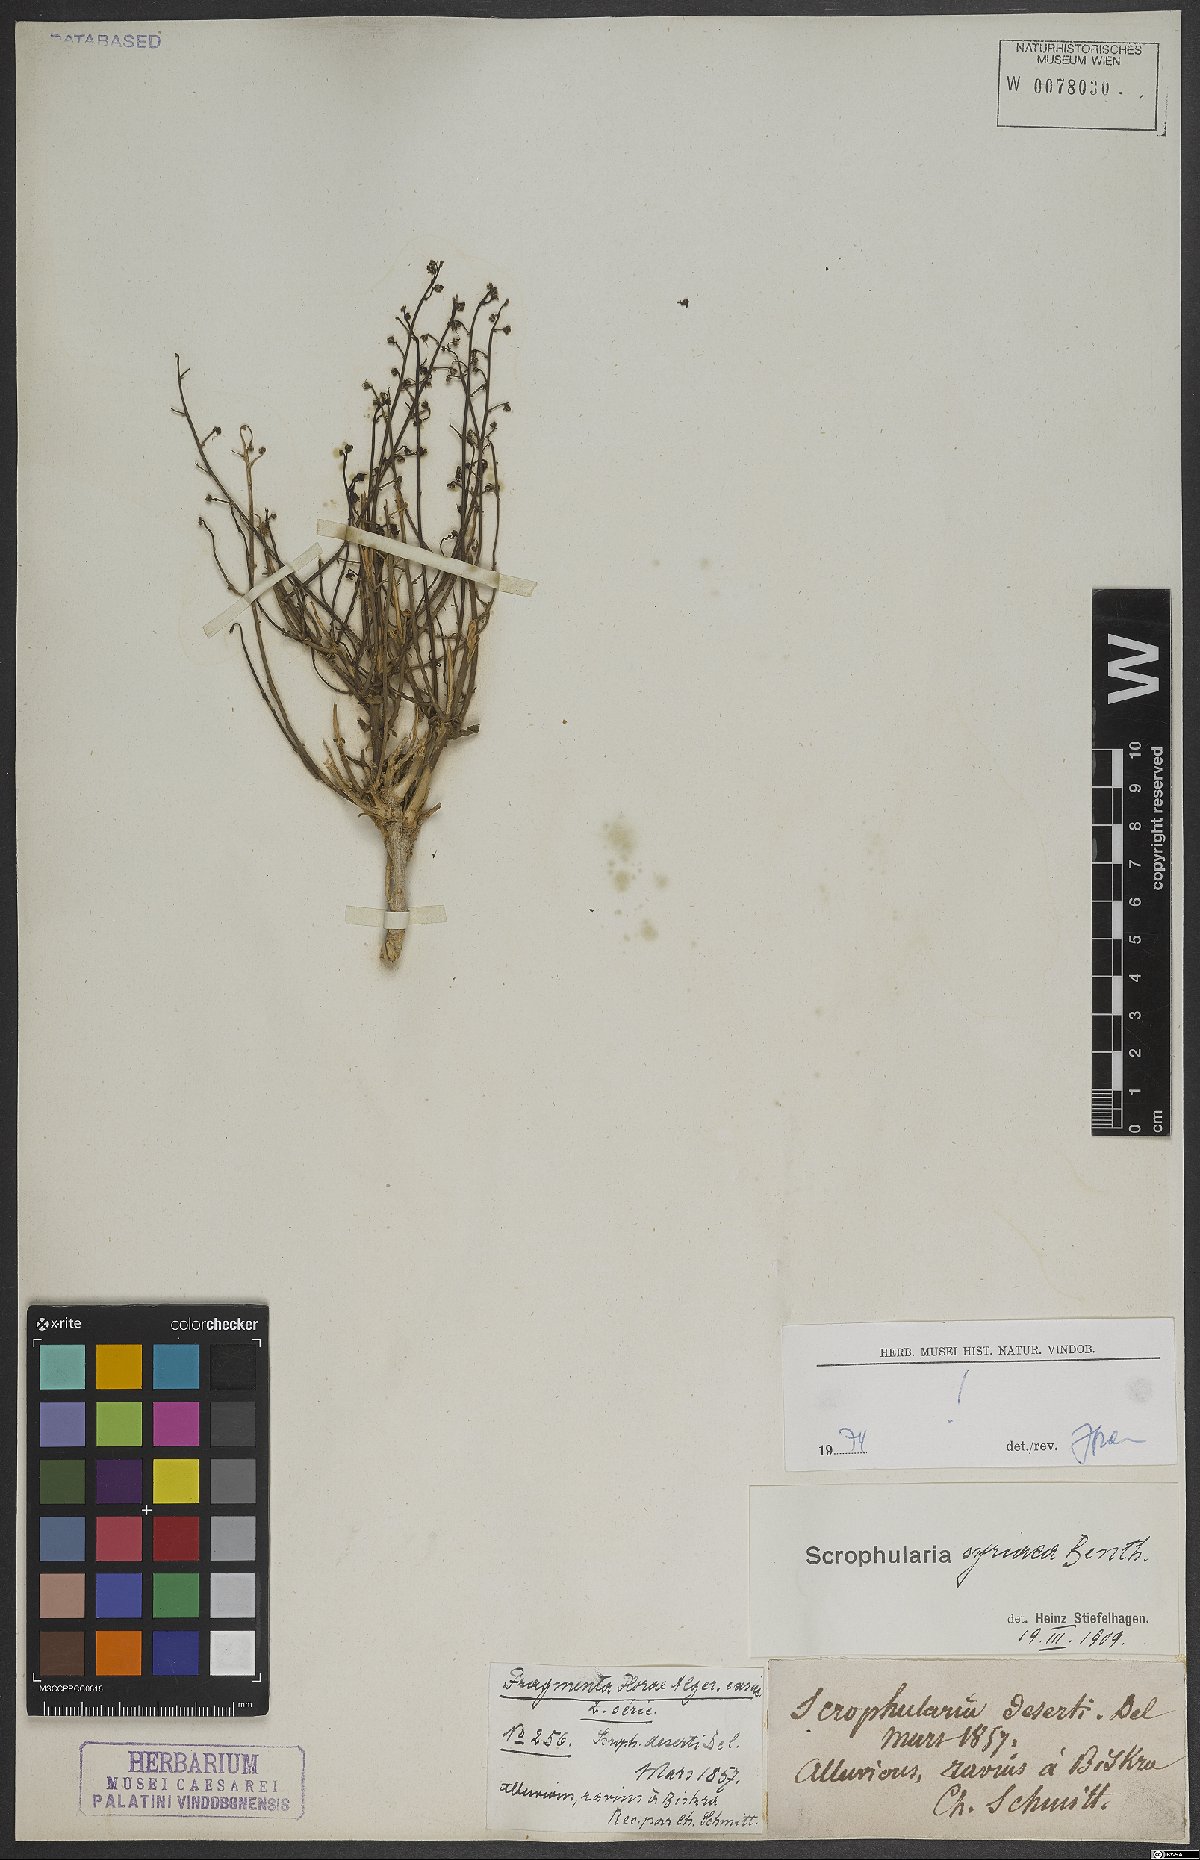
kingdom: Plantae
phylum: Tracheophyta
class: Magnoliopsida
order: Lamiales
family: Scrophulariaceae
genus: Scrophularia
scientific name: Scrophularia hypericifolia
